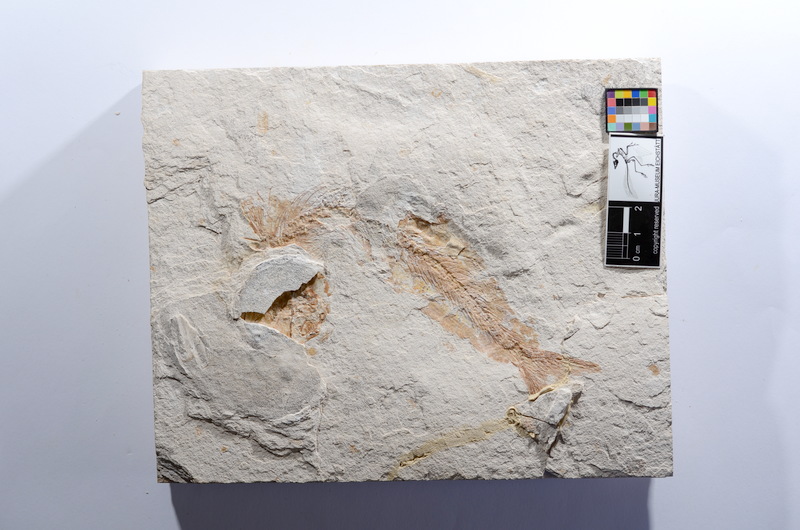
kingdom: Animalia
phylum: Chordata
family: Ascalaboidae
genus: Tharsis
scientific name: Tharsis dubius
